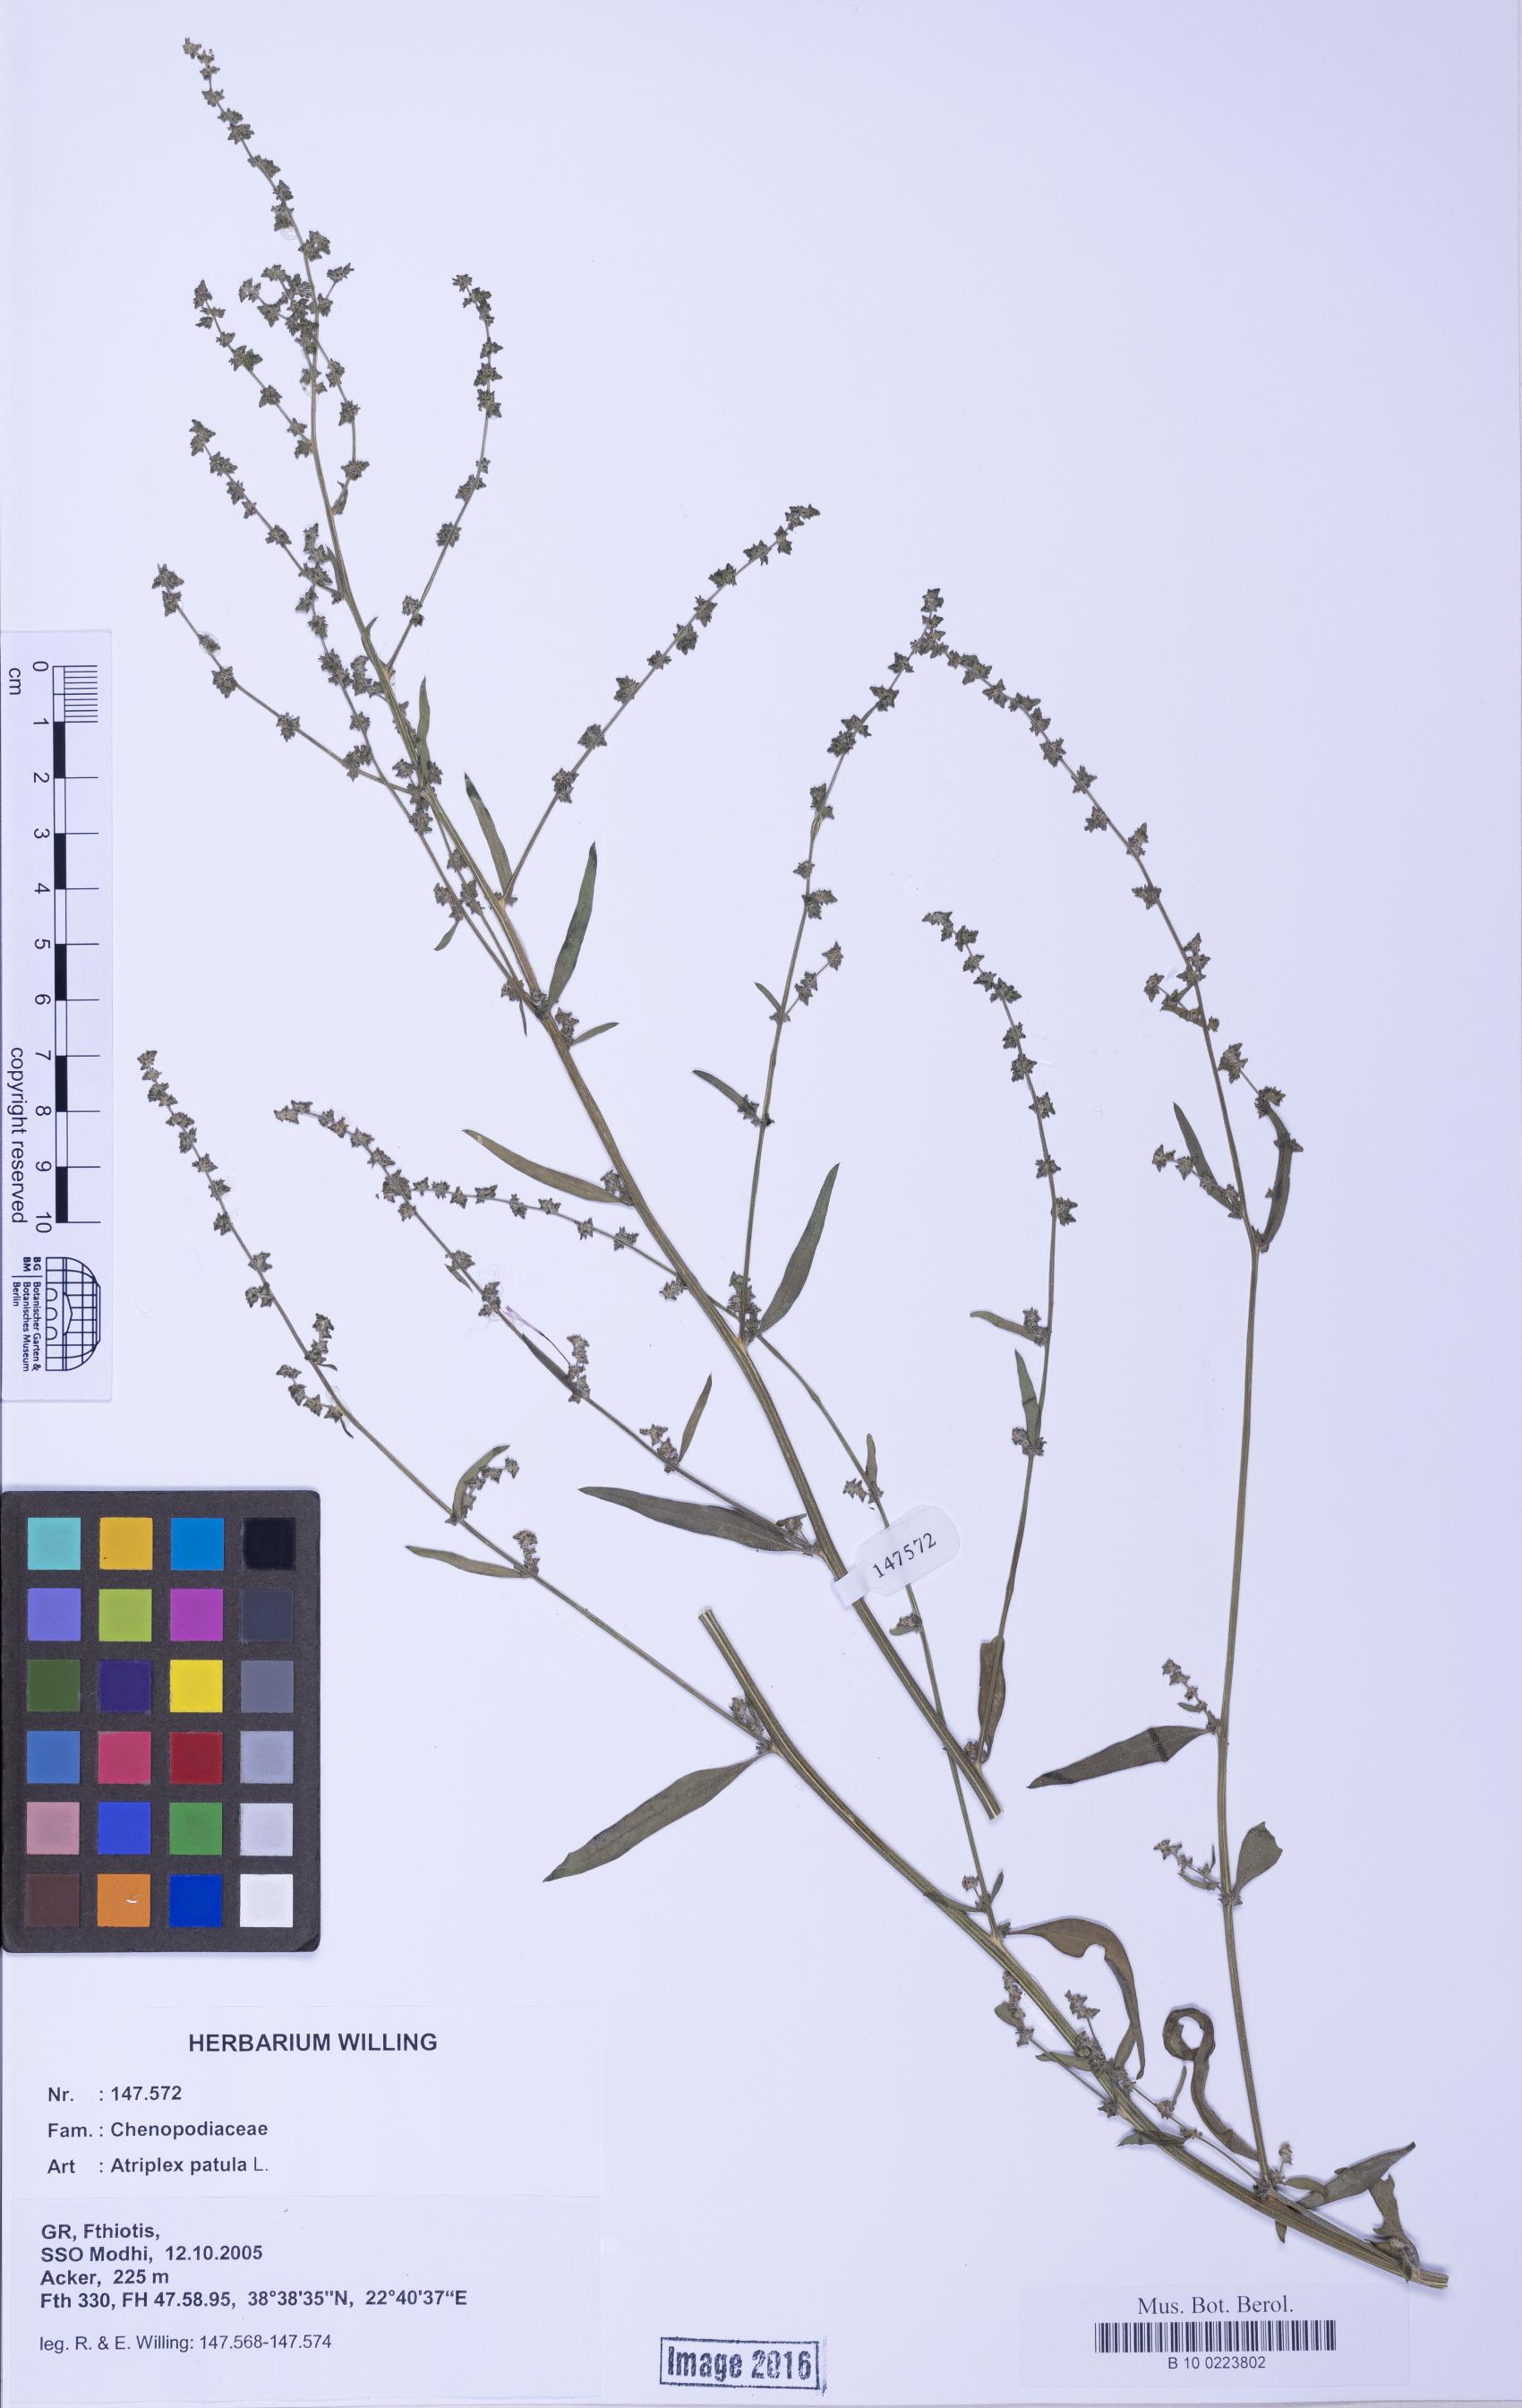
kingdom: Plantae
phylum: Tracheophyta
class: Magnoliopsida
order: Caryophyllales
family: Amaranthaceae
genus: Atriplex
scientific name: Atriplex patula
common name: Common orache
